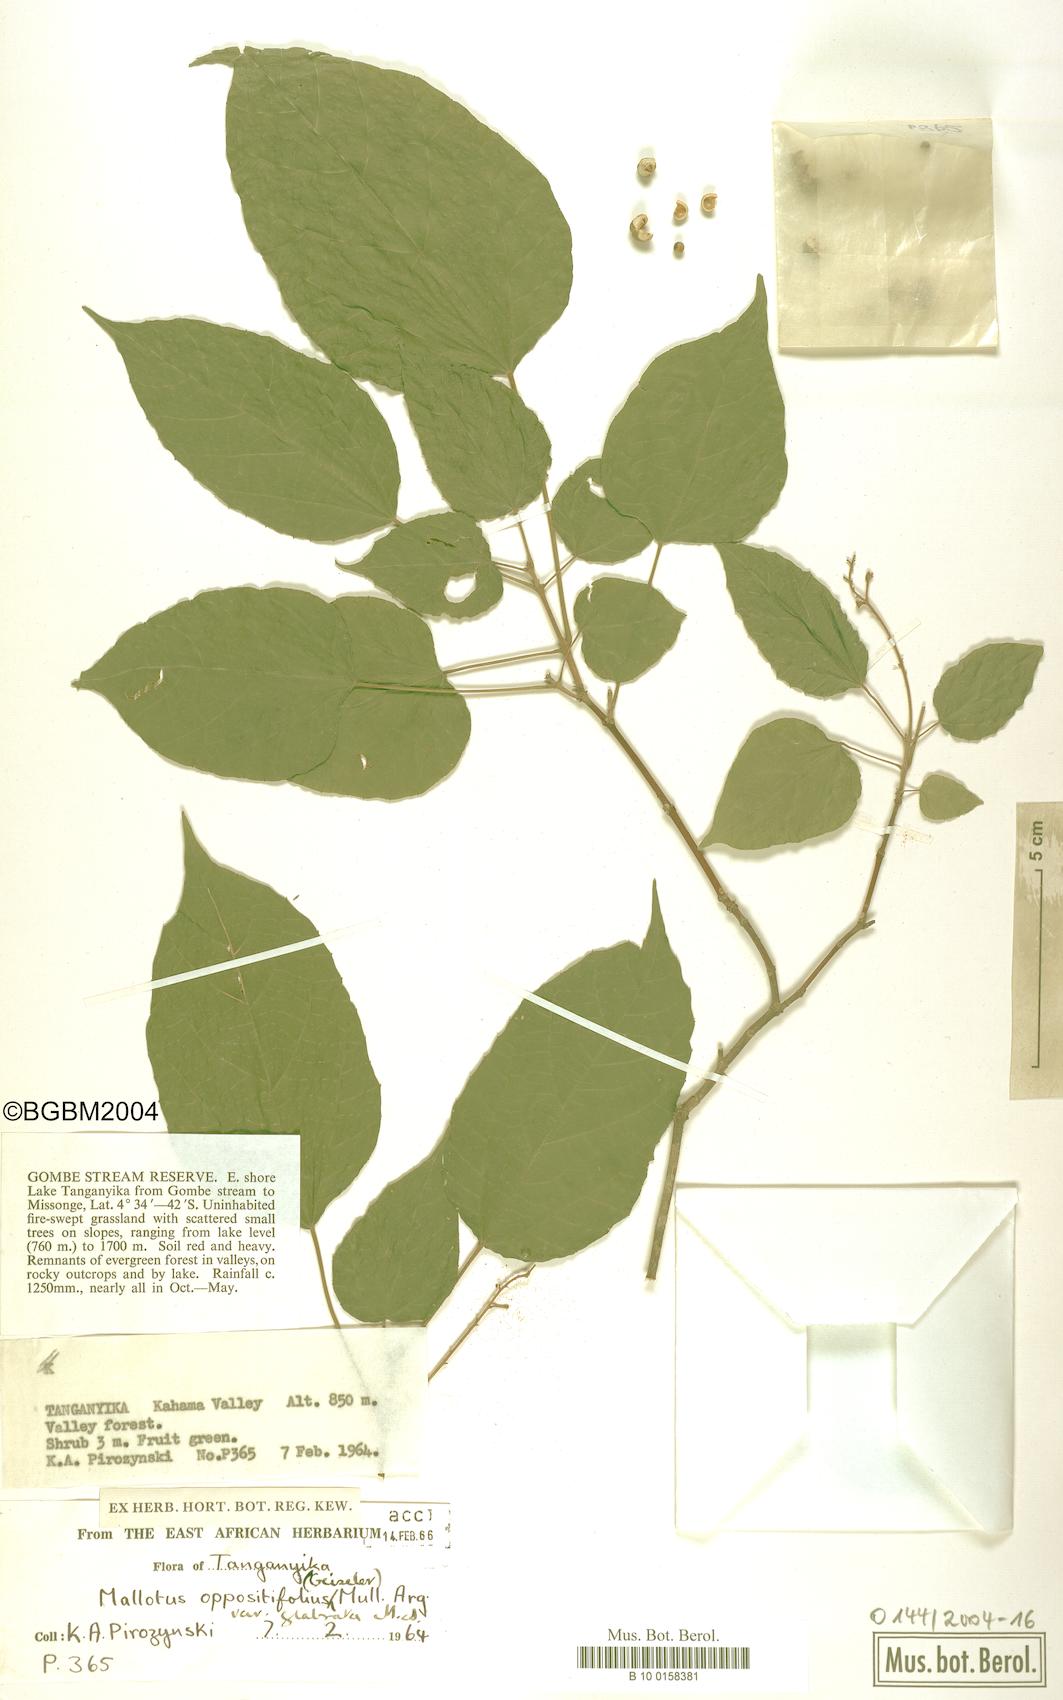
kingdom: Plantae
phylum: Tracheophyta
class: Magnoliopsida
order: Malpighiales
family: Euphorbiaceae
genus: Mallotus
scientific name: Mallotus oppositifolius
